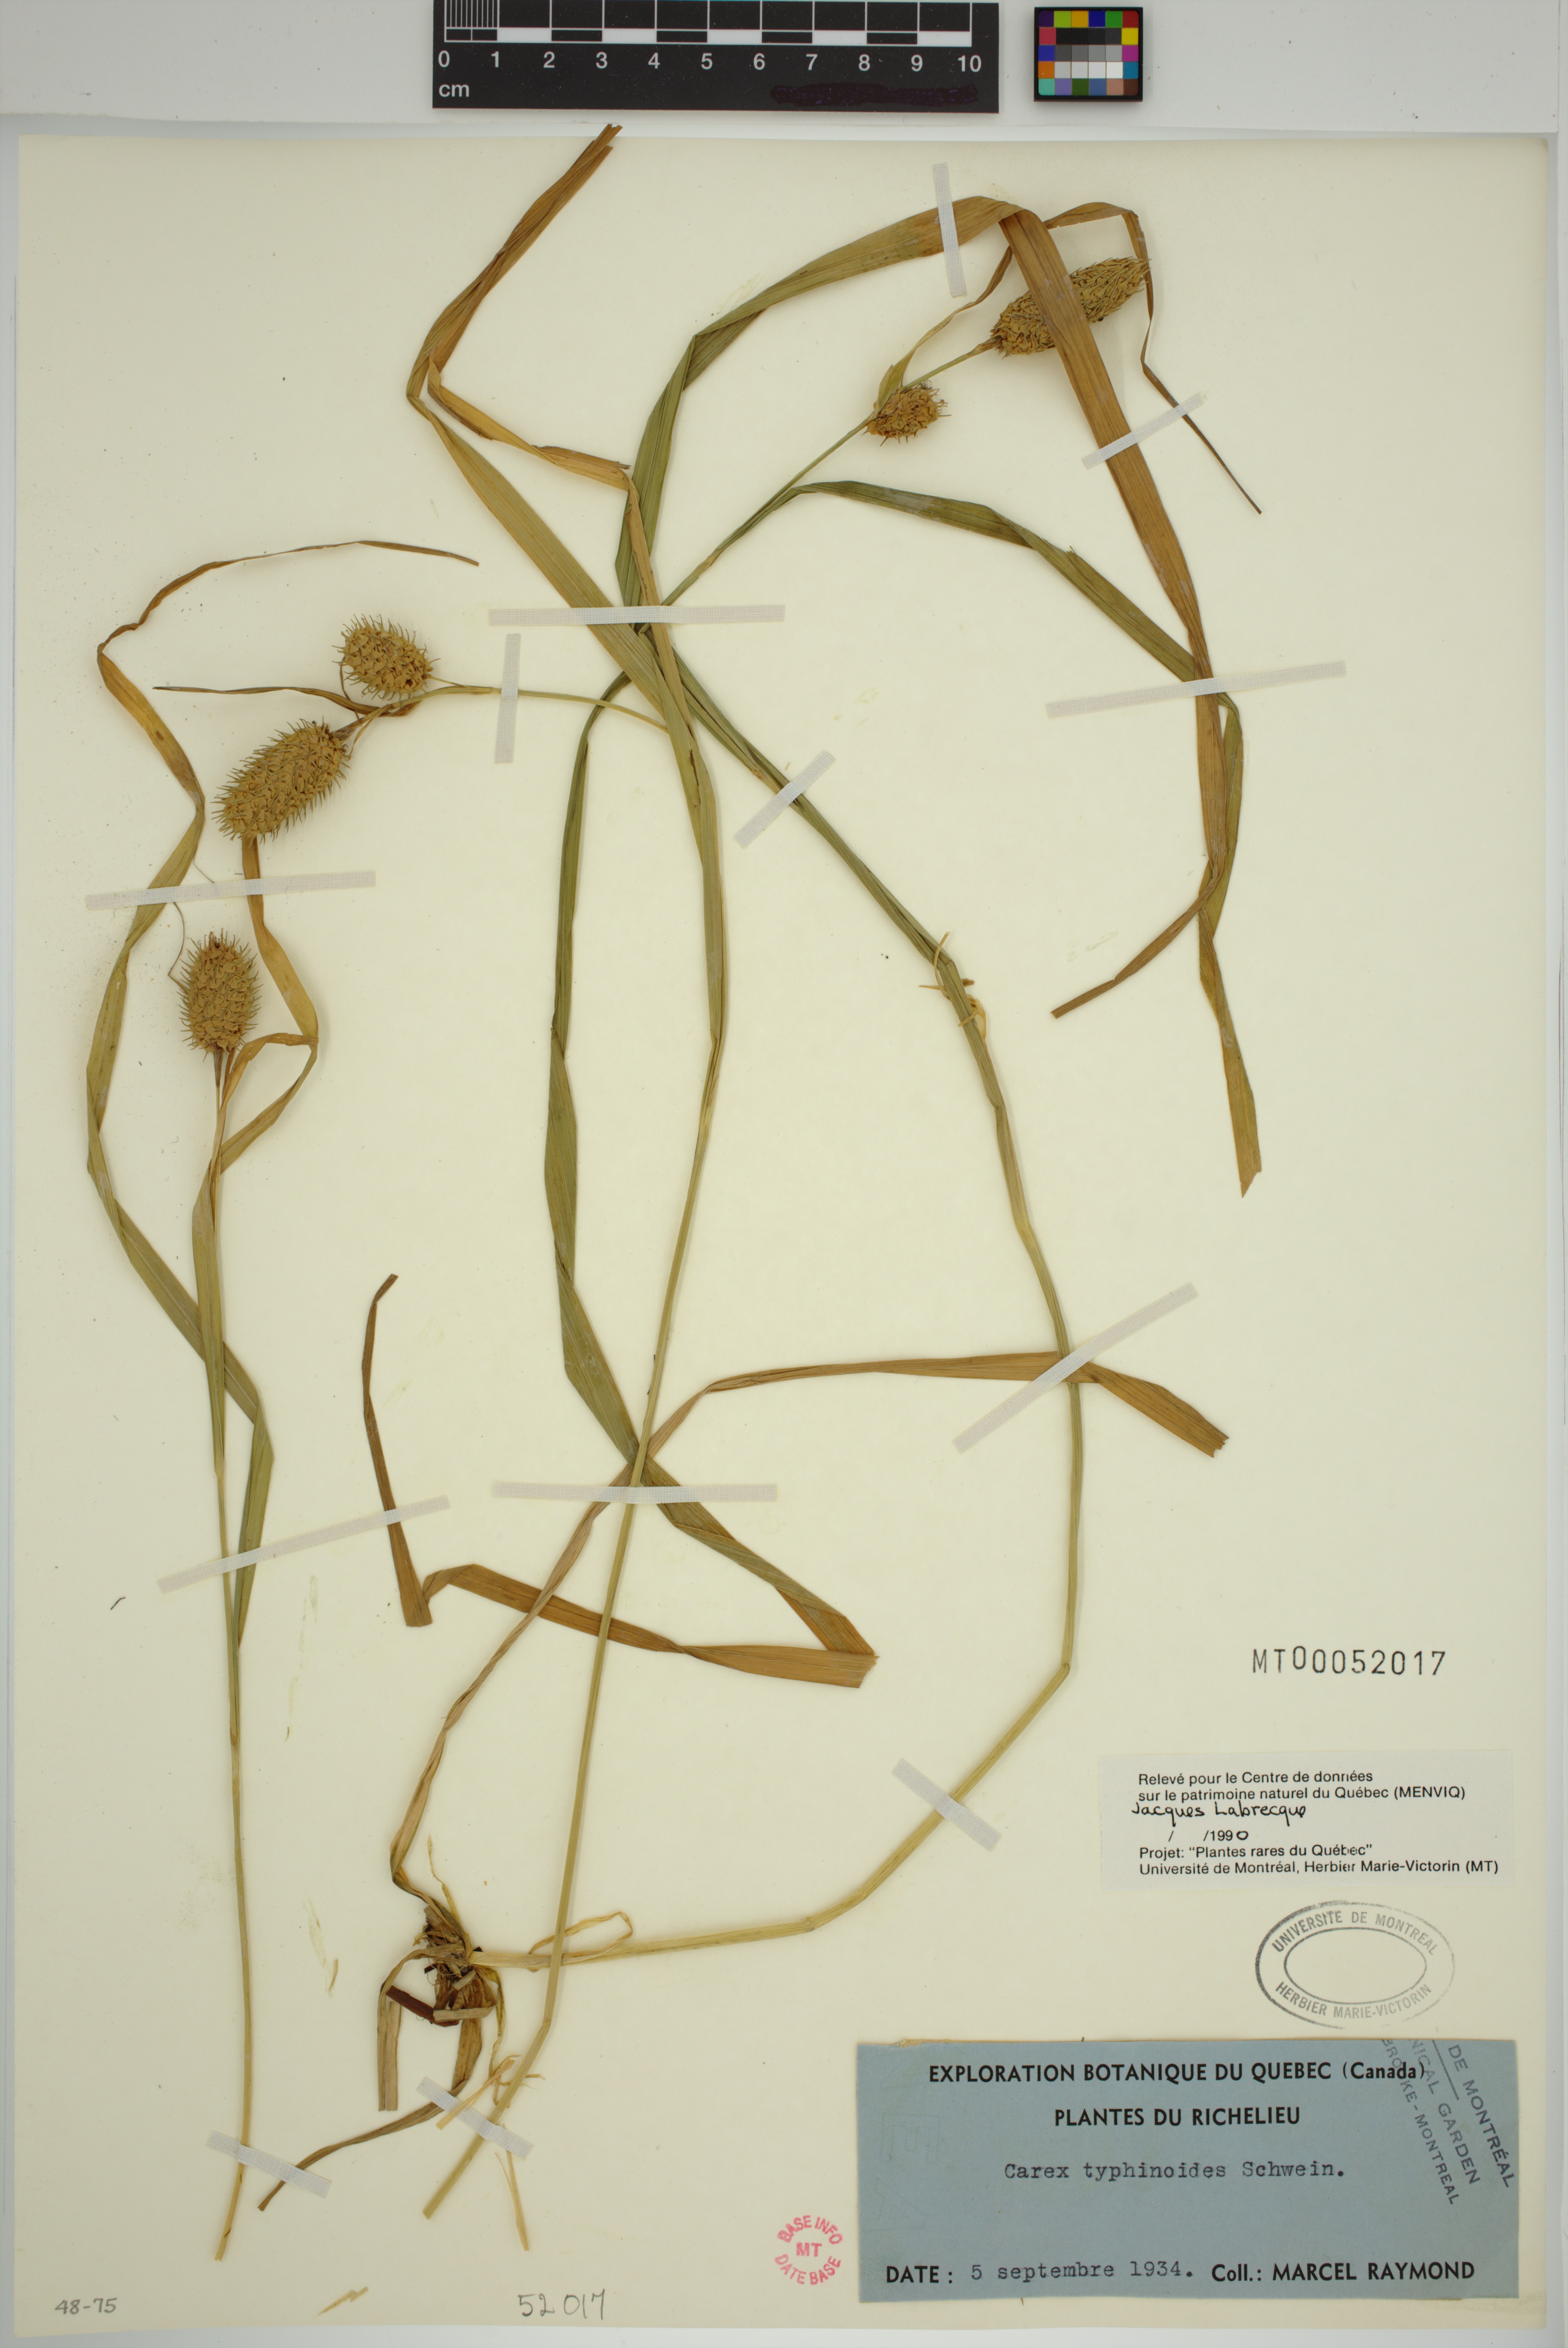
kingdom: Plantae
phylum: Tracheophyta
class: Liliopsida
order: Poales
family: Cyperaceae
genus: Carex
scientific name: Carex typhina
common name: Cattail sedge
